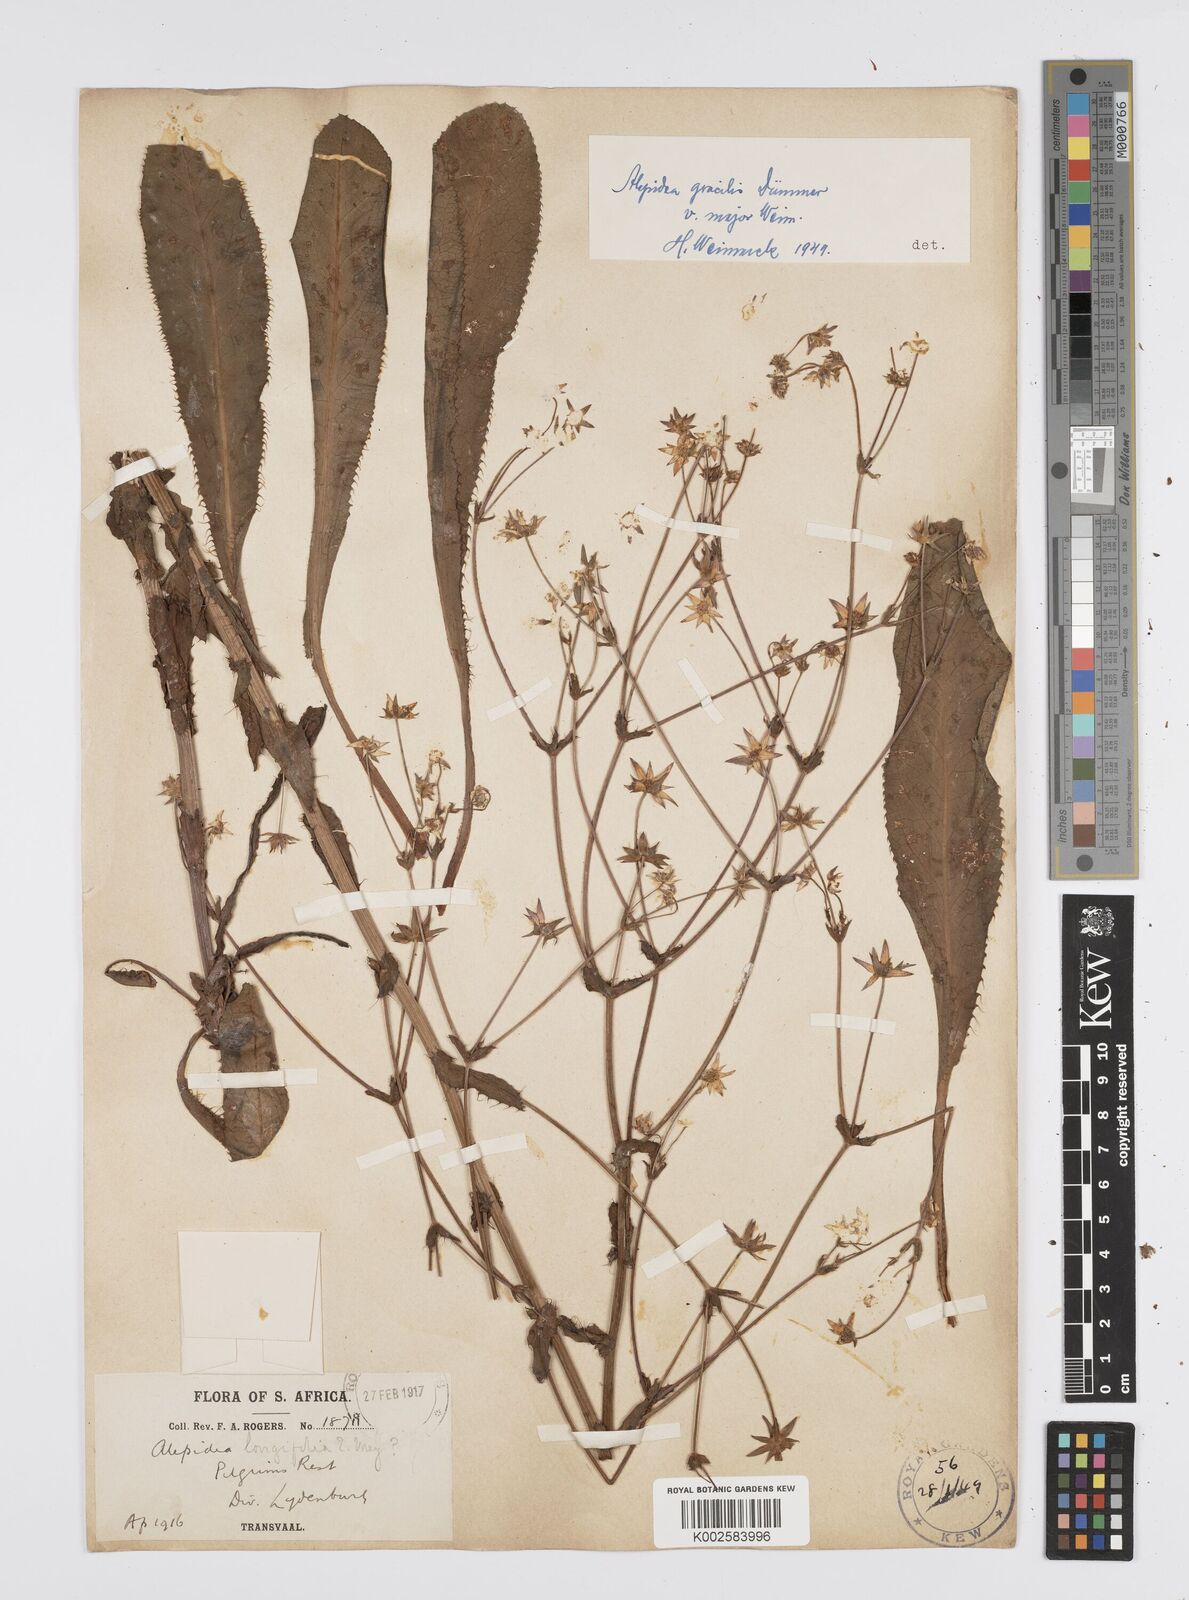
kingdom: Plantae
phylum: Tracheophyta
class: Magnoliopsida
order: Apiales
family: Apiaceae
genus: Alepidea
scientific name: Alepidea
